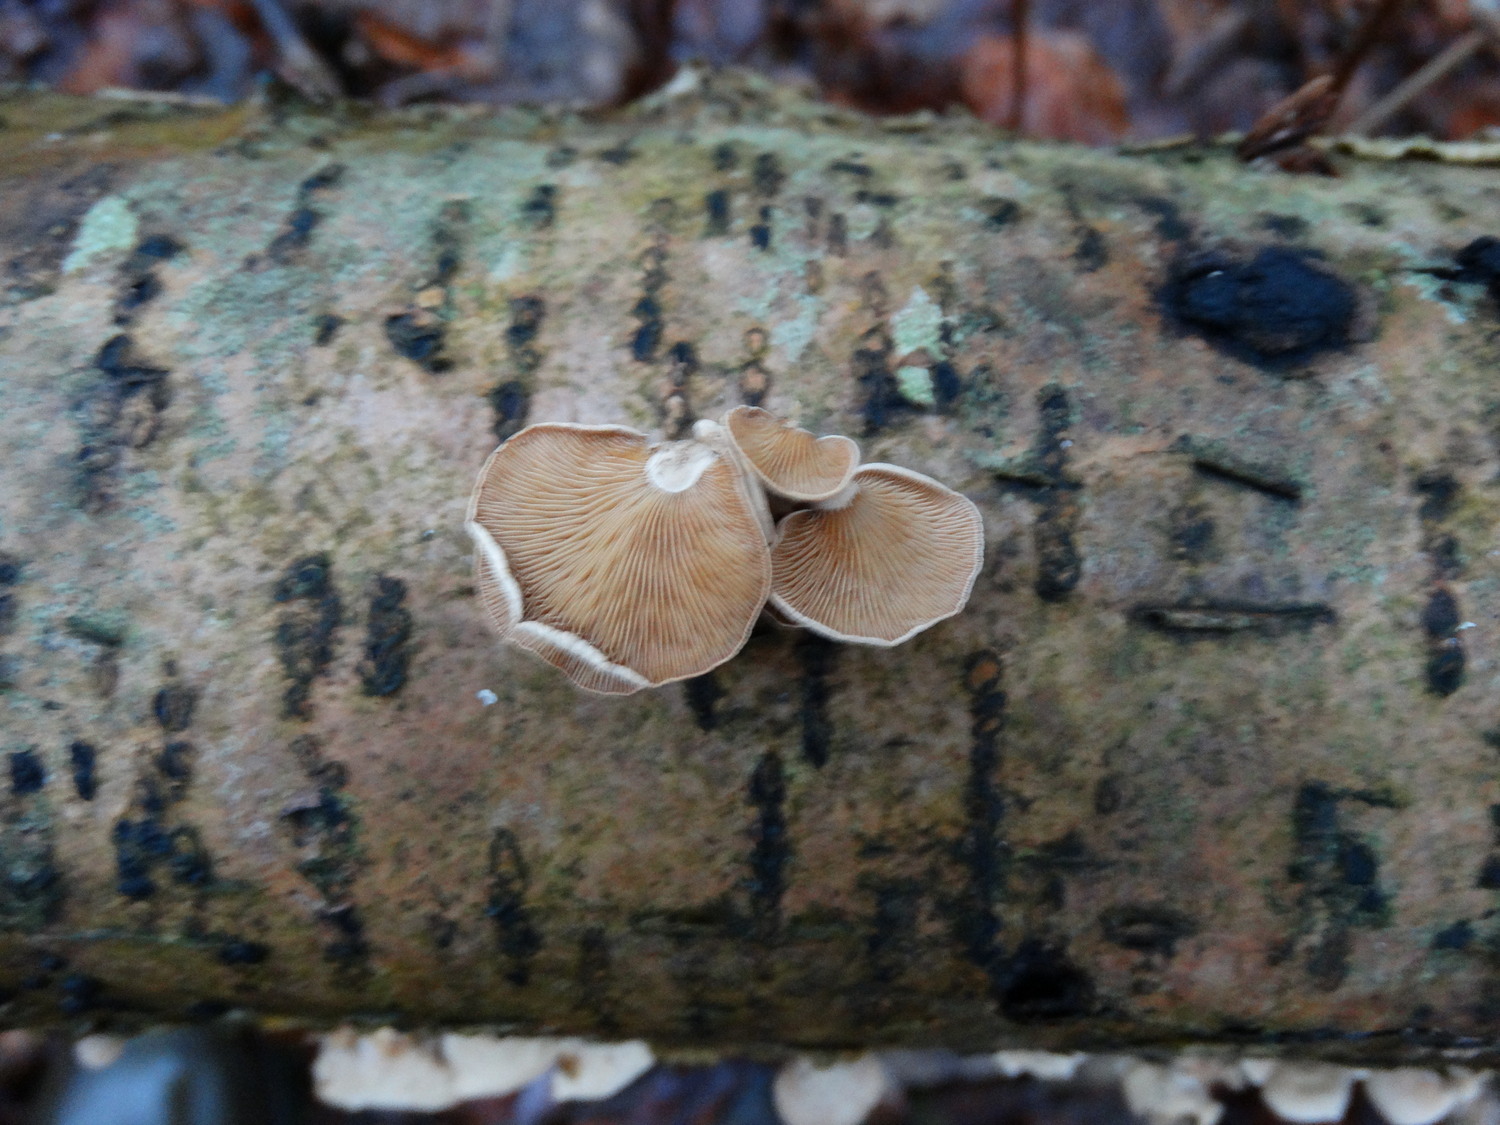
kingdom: Fungi
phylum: Basidiomycota
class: Agaricomycetes
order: Agaricales
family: Mycenaceae
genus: Panellus
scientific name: Panellus stipticus
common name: kliddet epaulethat
